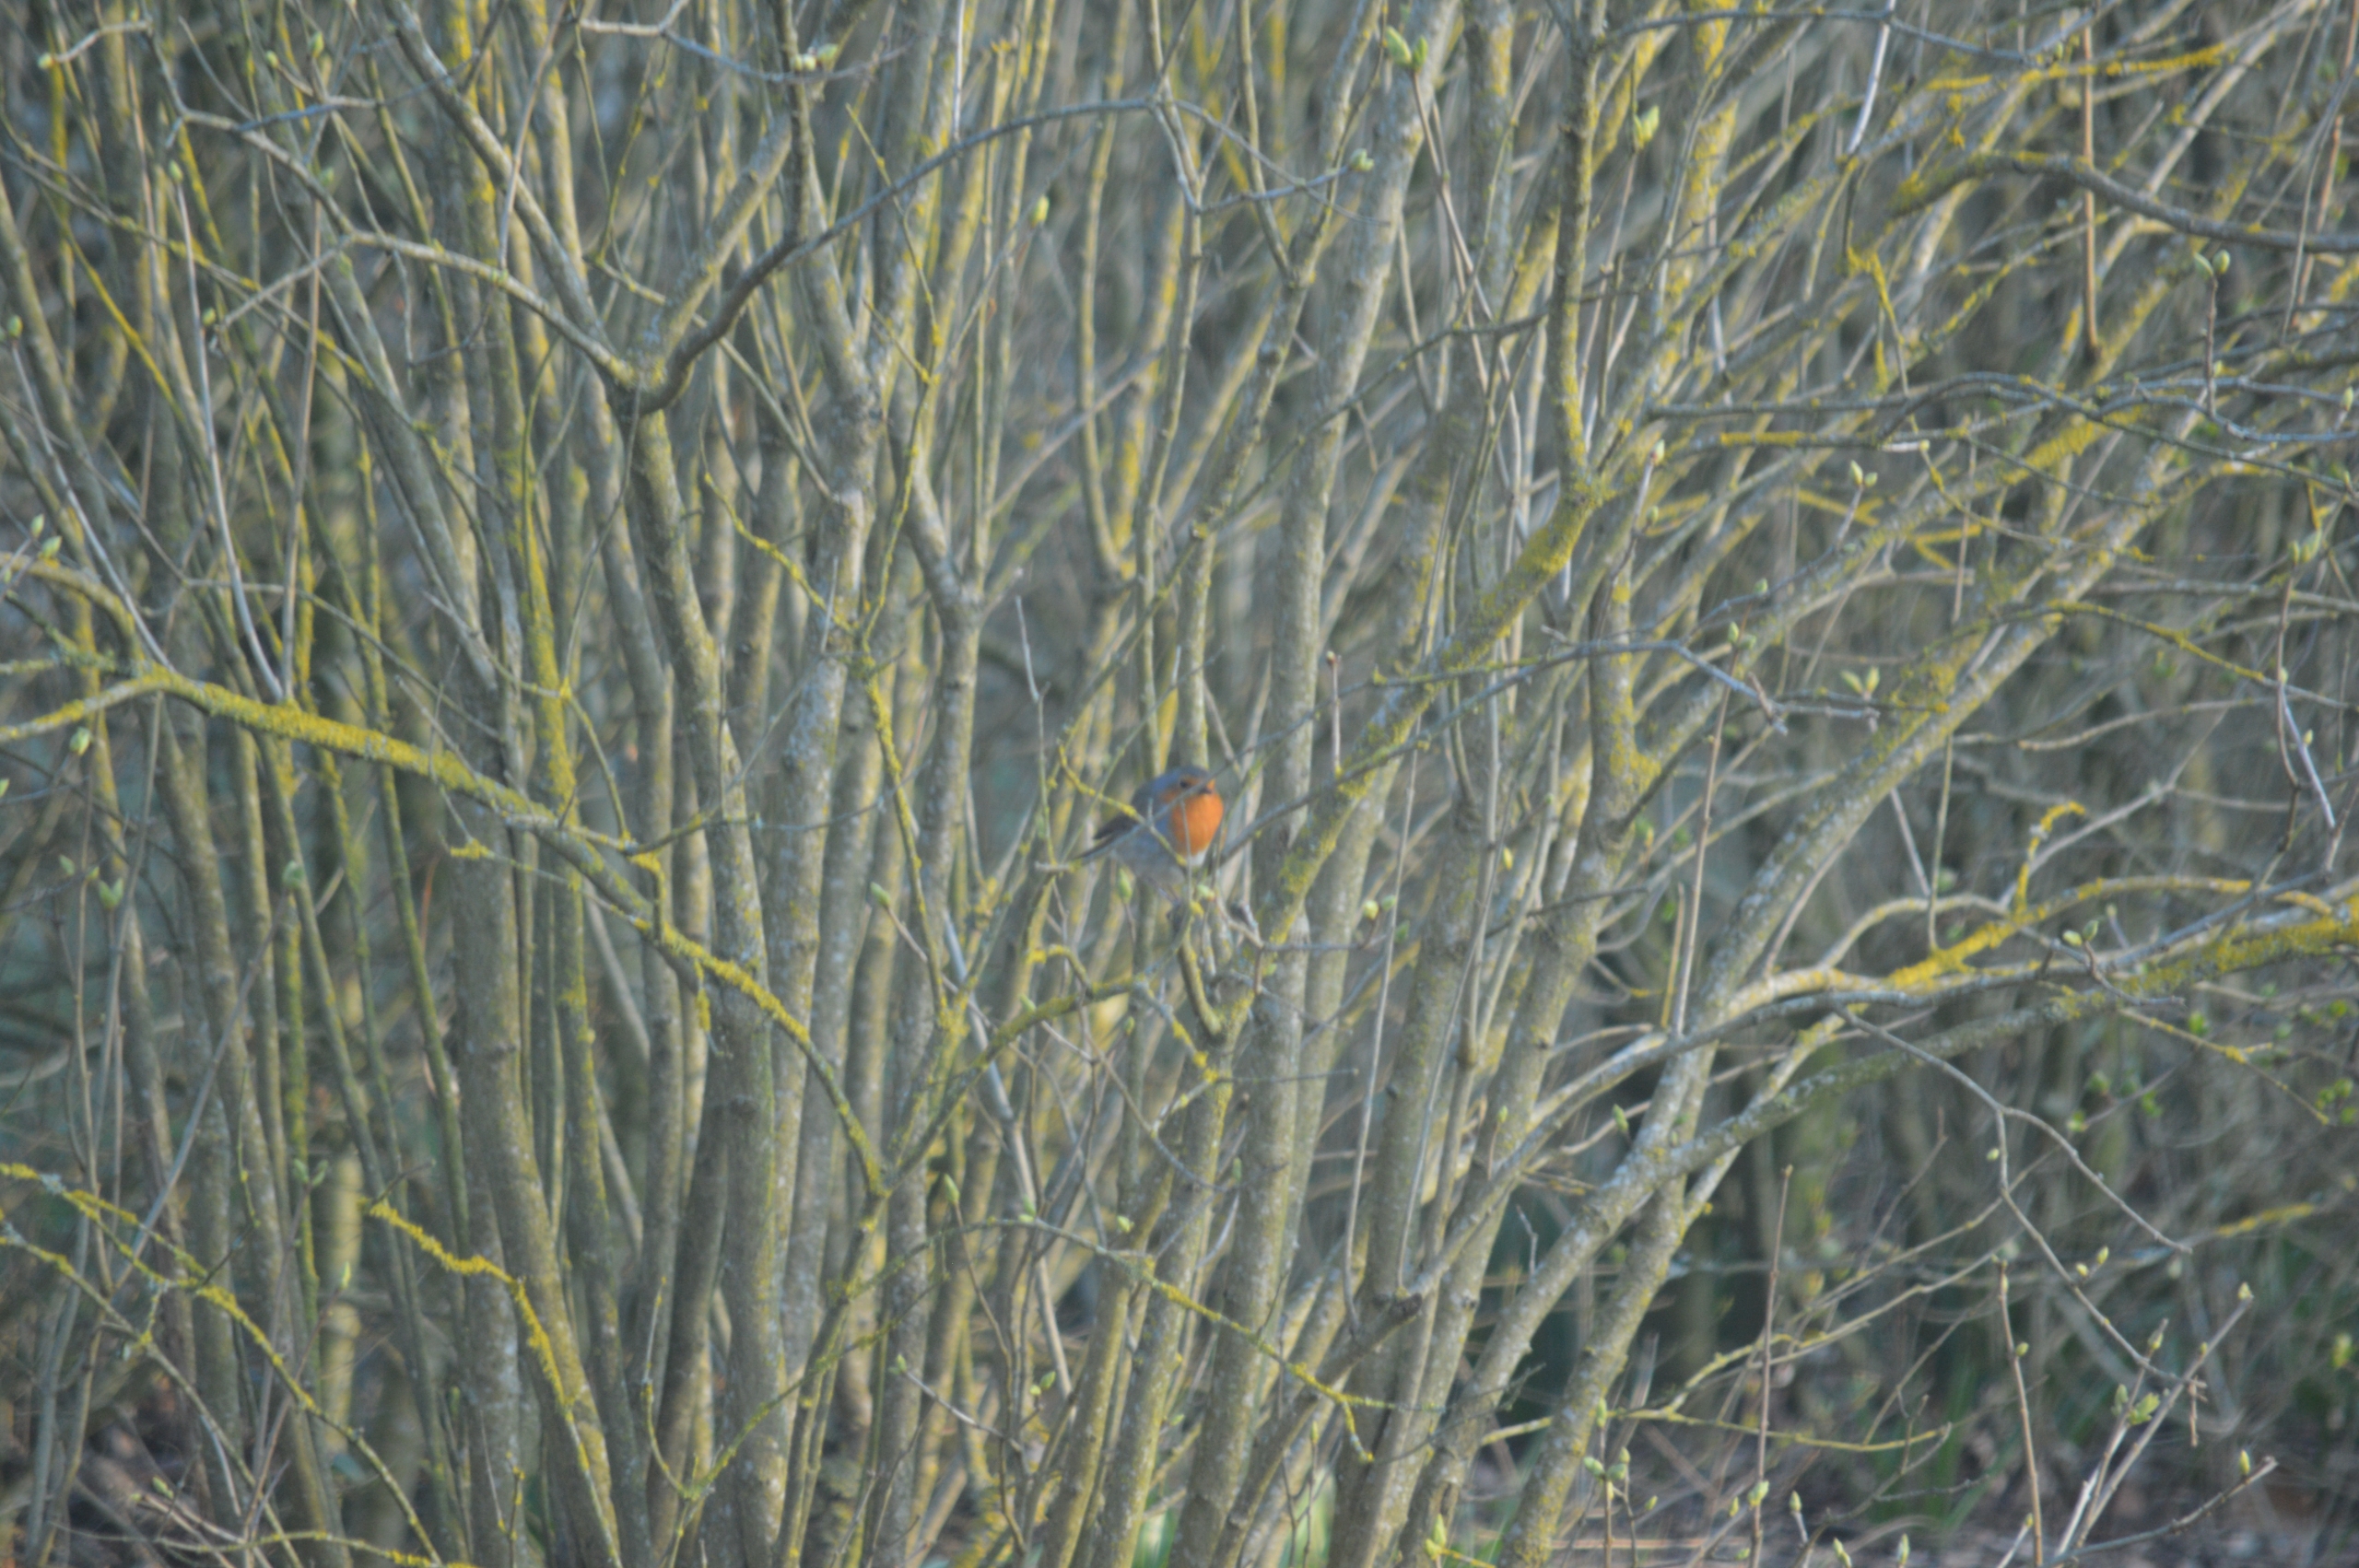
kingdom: Animalia
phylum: Chordata
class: Aves
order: Passeriformes
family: Muscicapidae
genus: Erithacus
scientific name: Erithacus rubecula
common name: Rødhals/rødkælk
